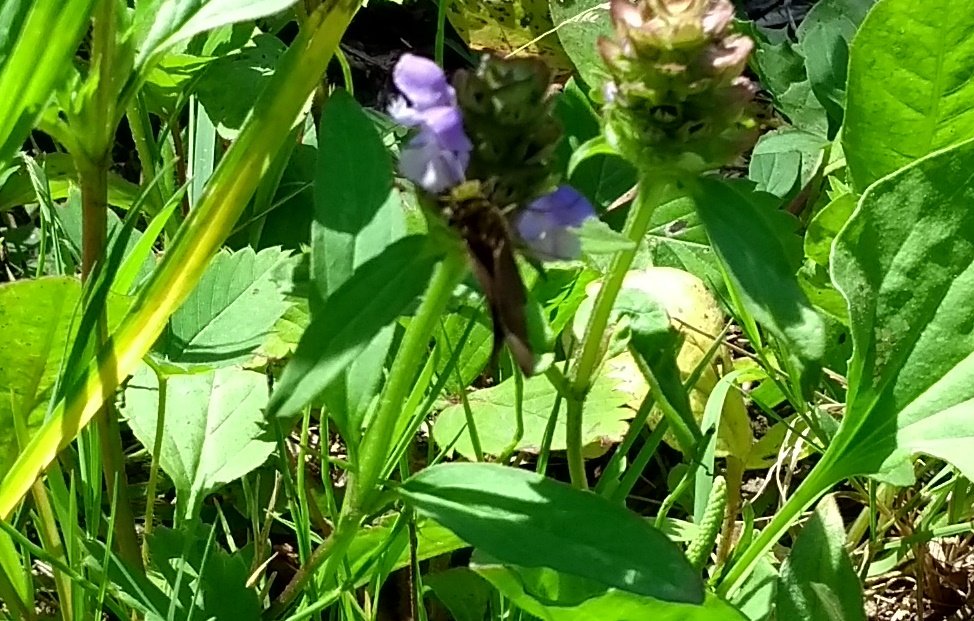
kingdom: Animalia
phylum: Arthropoda
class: Insecta
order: Lepidoptera
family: Hesperiidae
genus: Euphyes
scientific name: Euphyes vestris
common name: Dun Skipper
